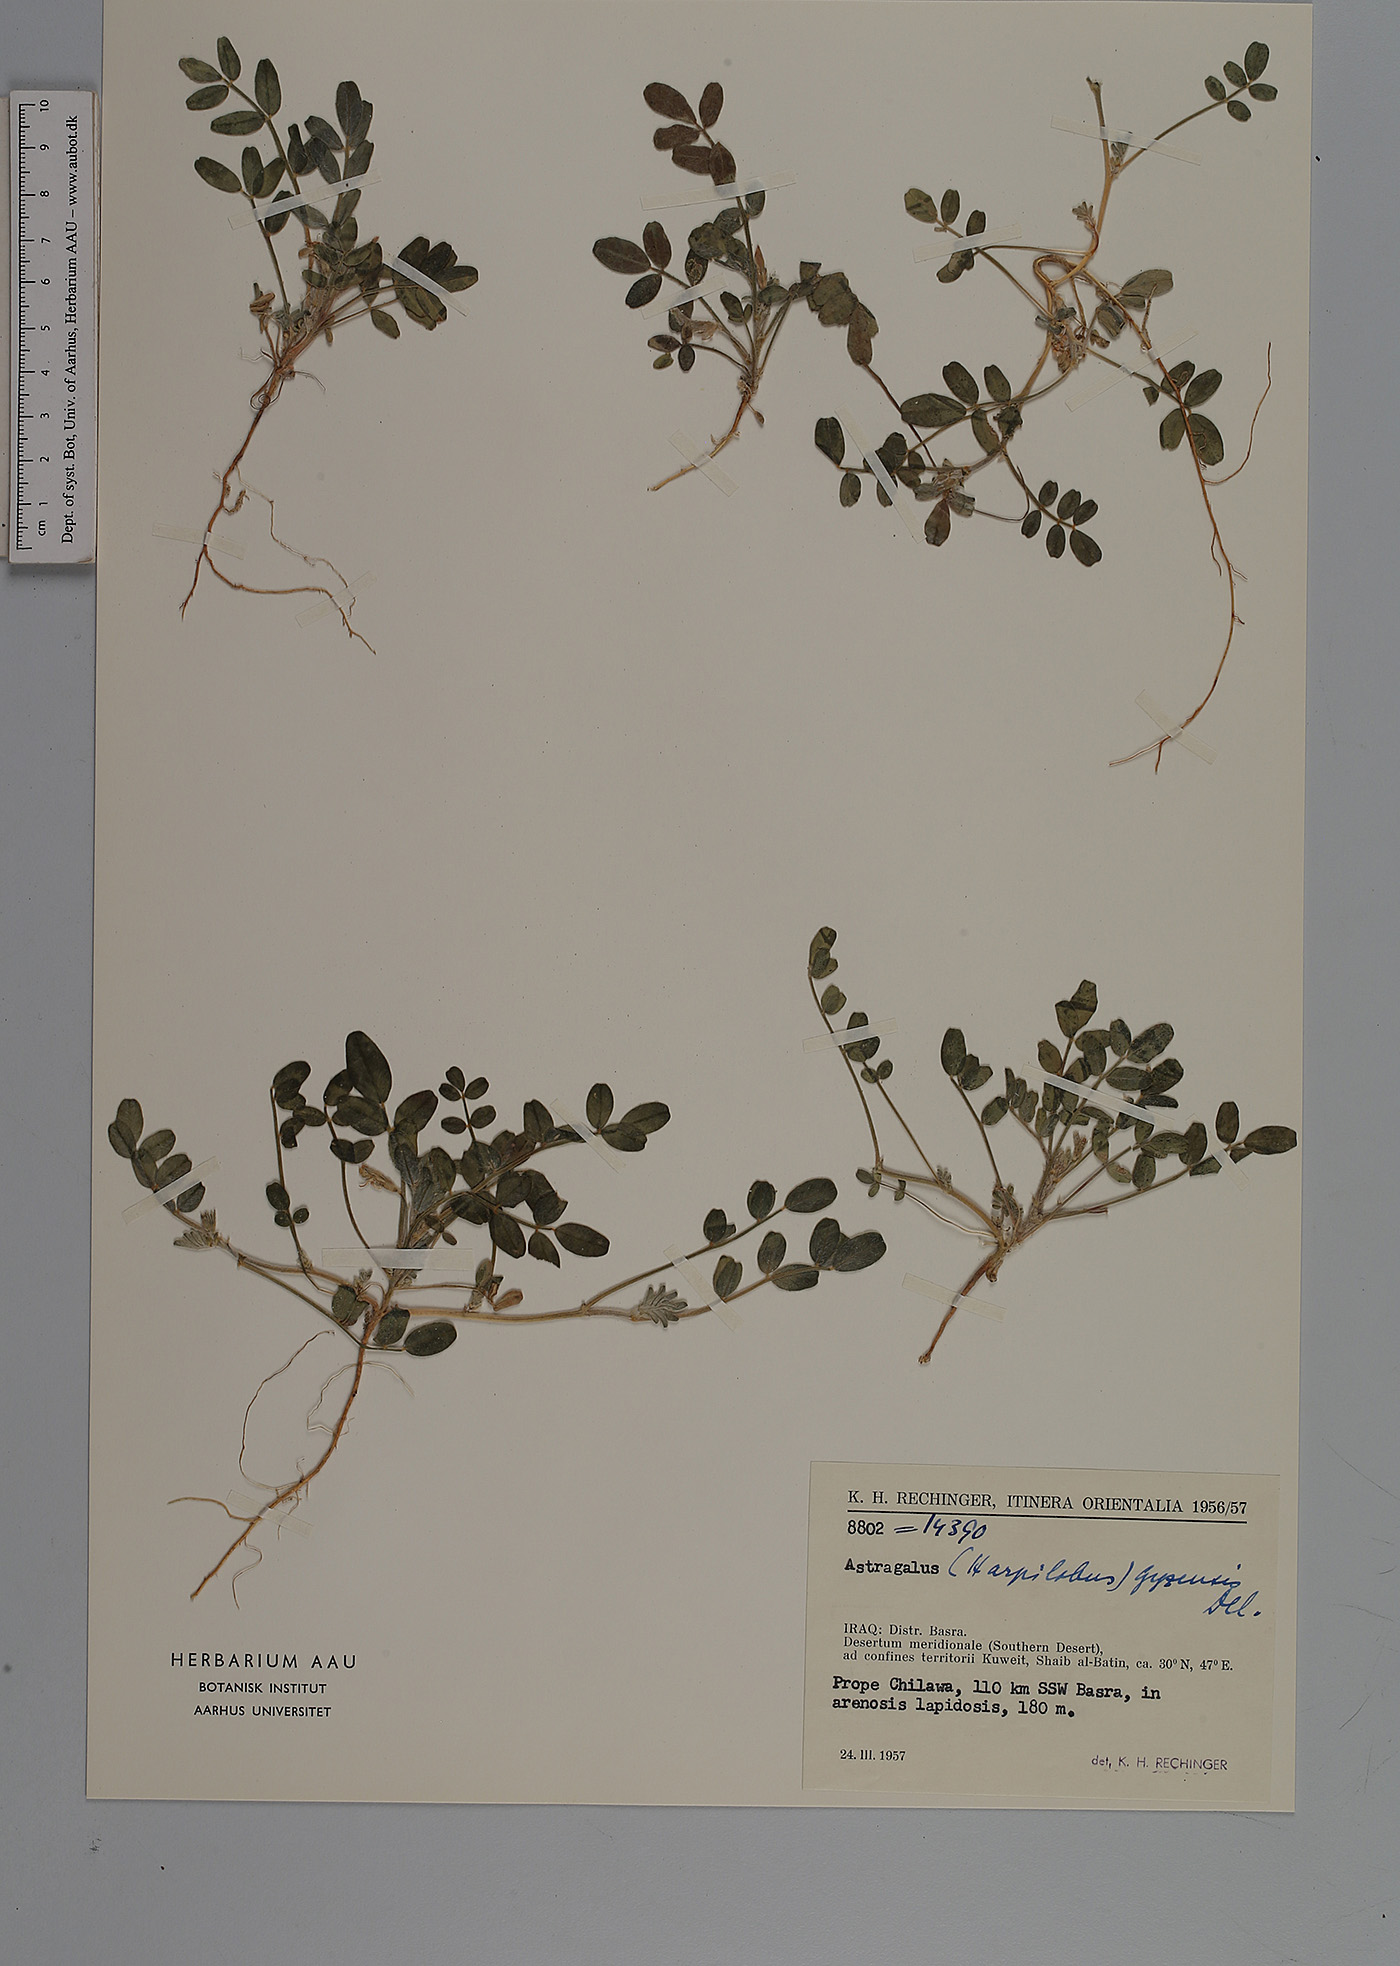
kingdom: Plantae
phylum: Tracheophyta
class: Magnoliopsida
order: Fabales
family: Fabaceae
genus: Astragalus
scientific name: Astragalus arpilobus
